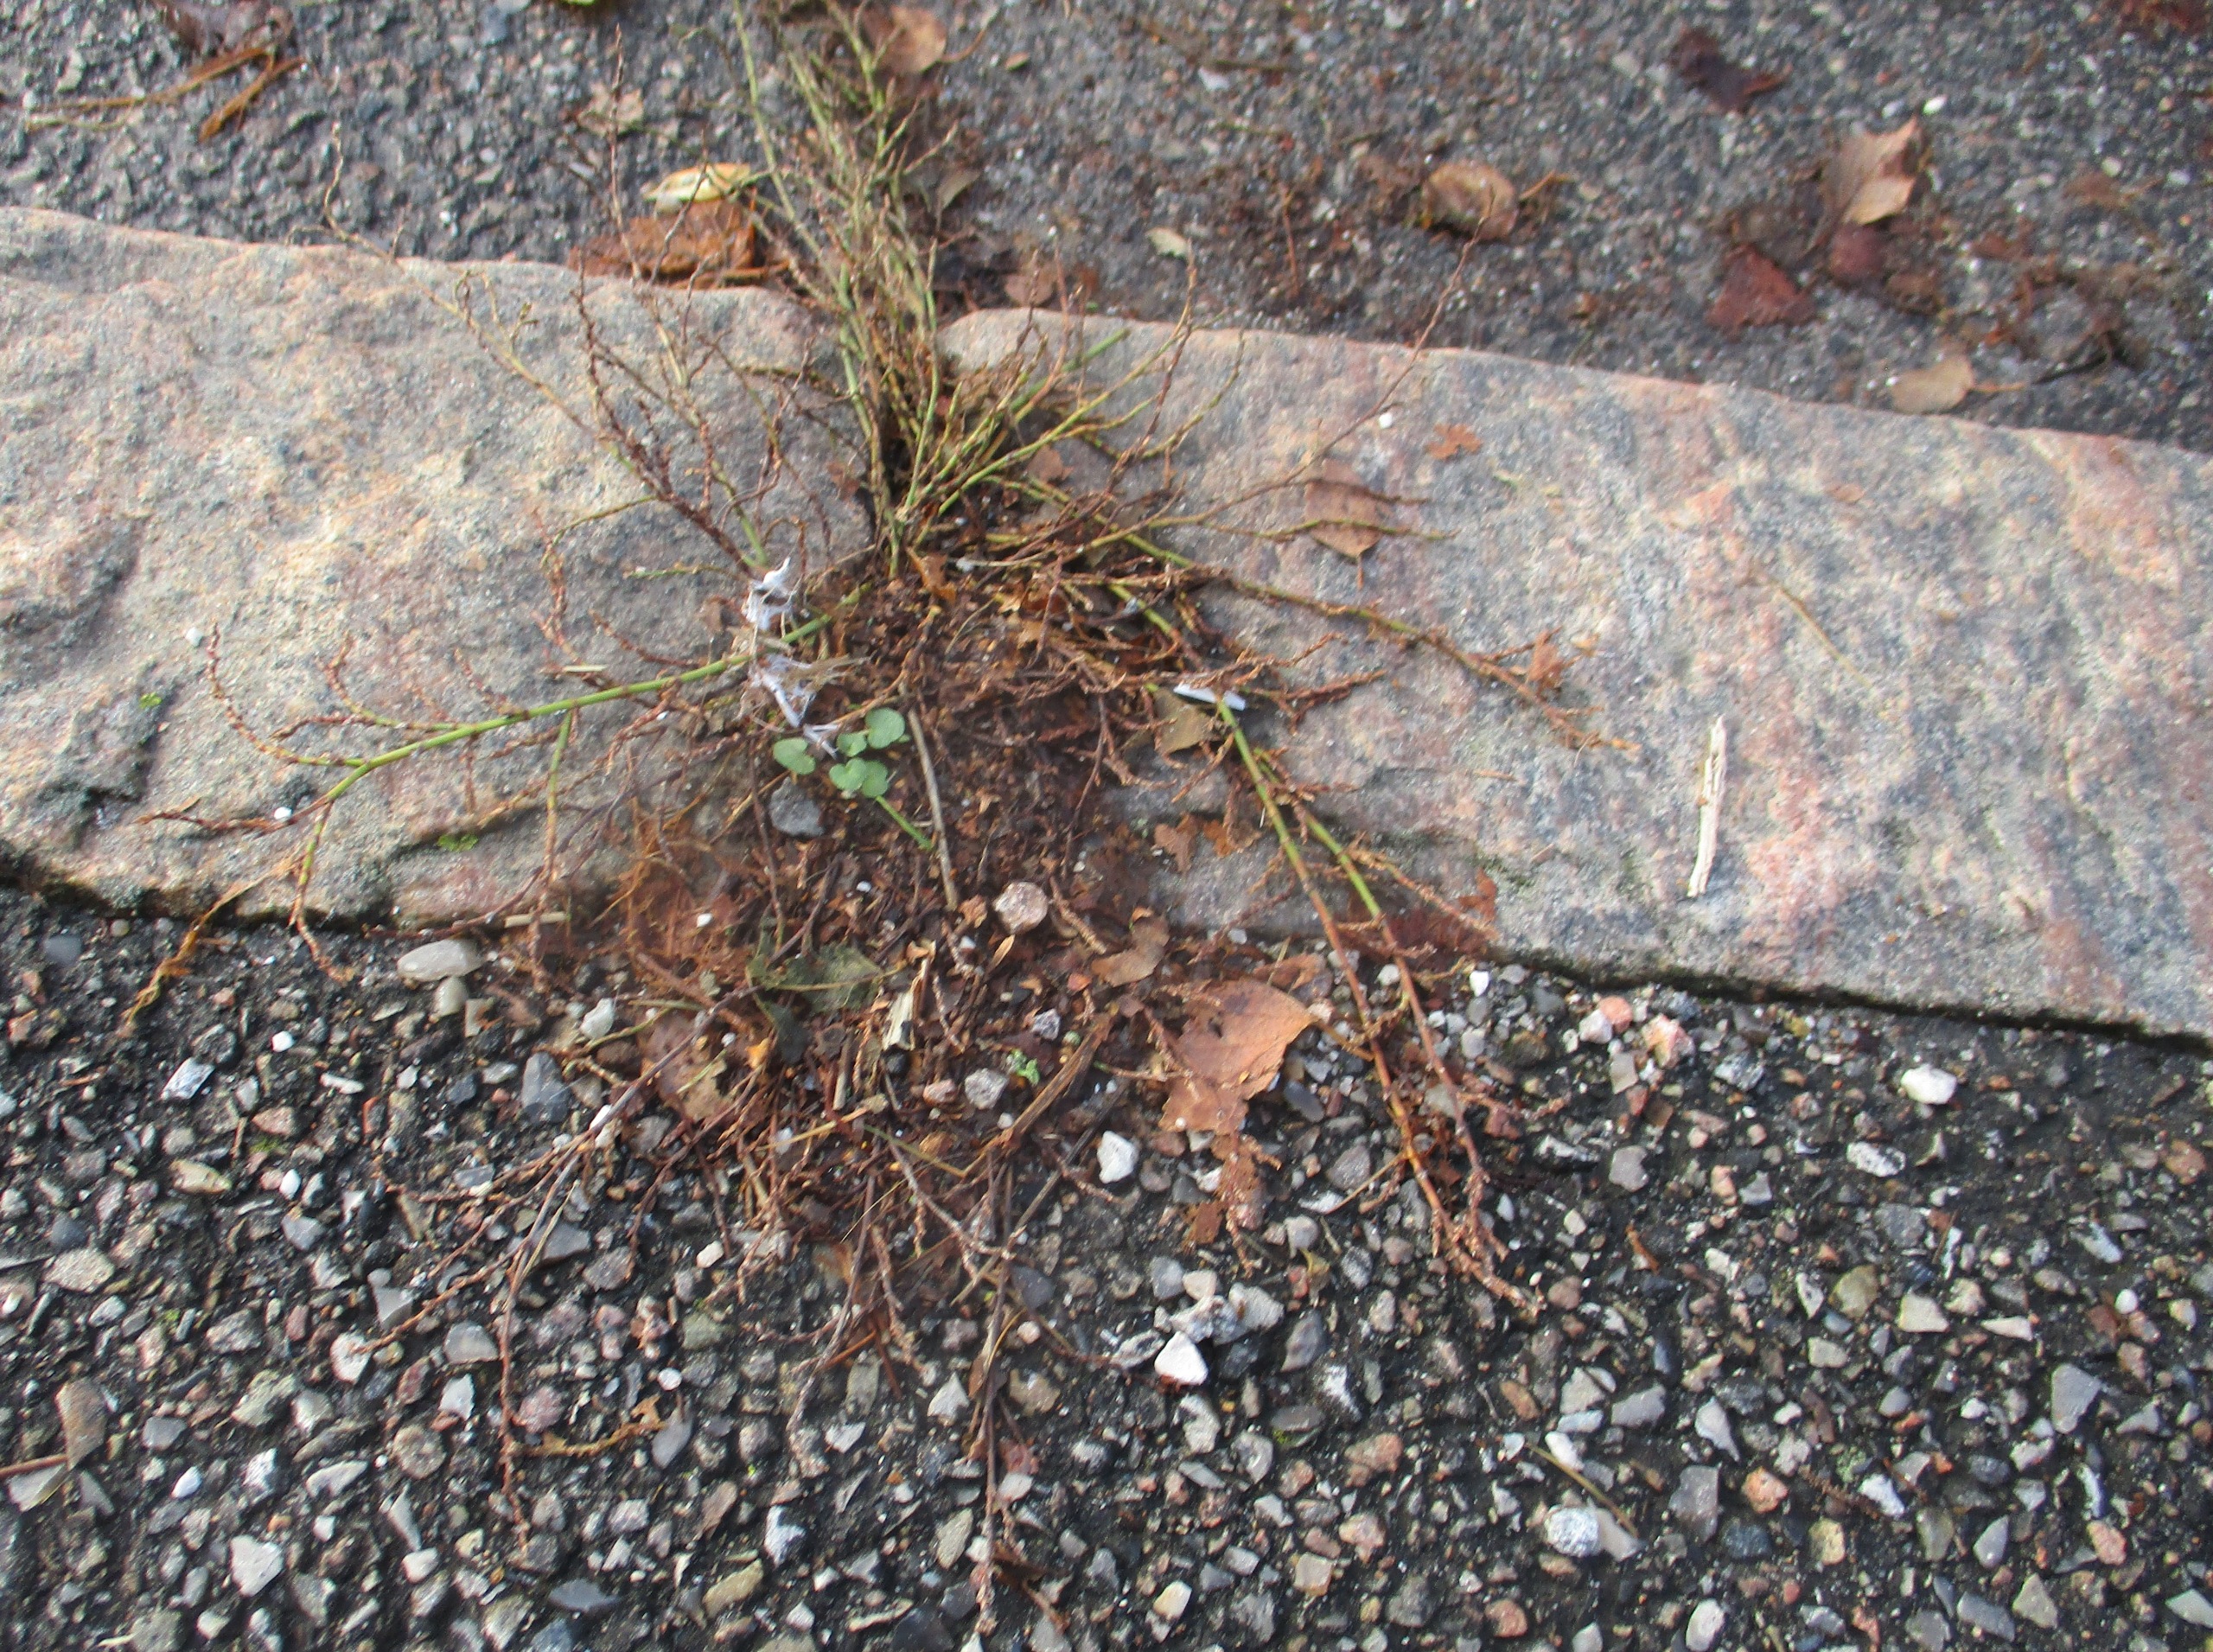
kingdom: Plantae
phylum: Tracheophyta
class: Magnoliopsida
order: Caryophyllales
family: Polygonaceae
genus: Polygonum
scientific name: Polygonum aviculare
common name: Vej-pileurt
